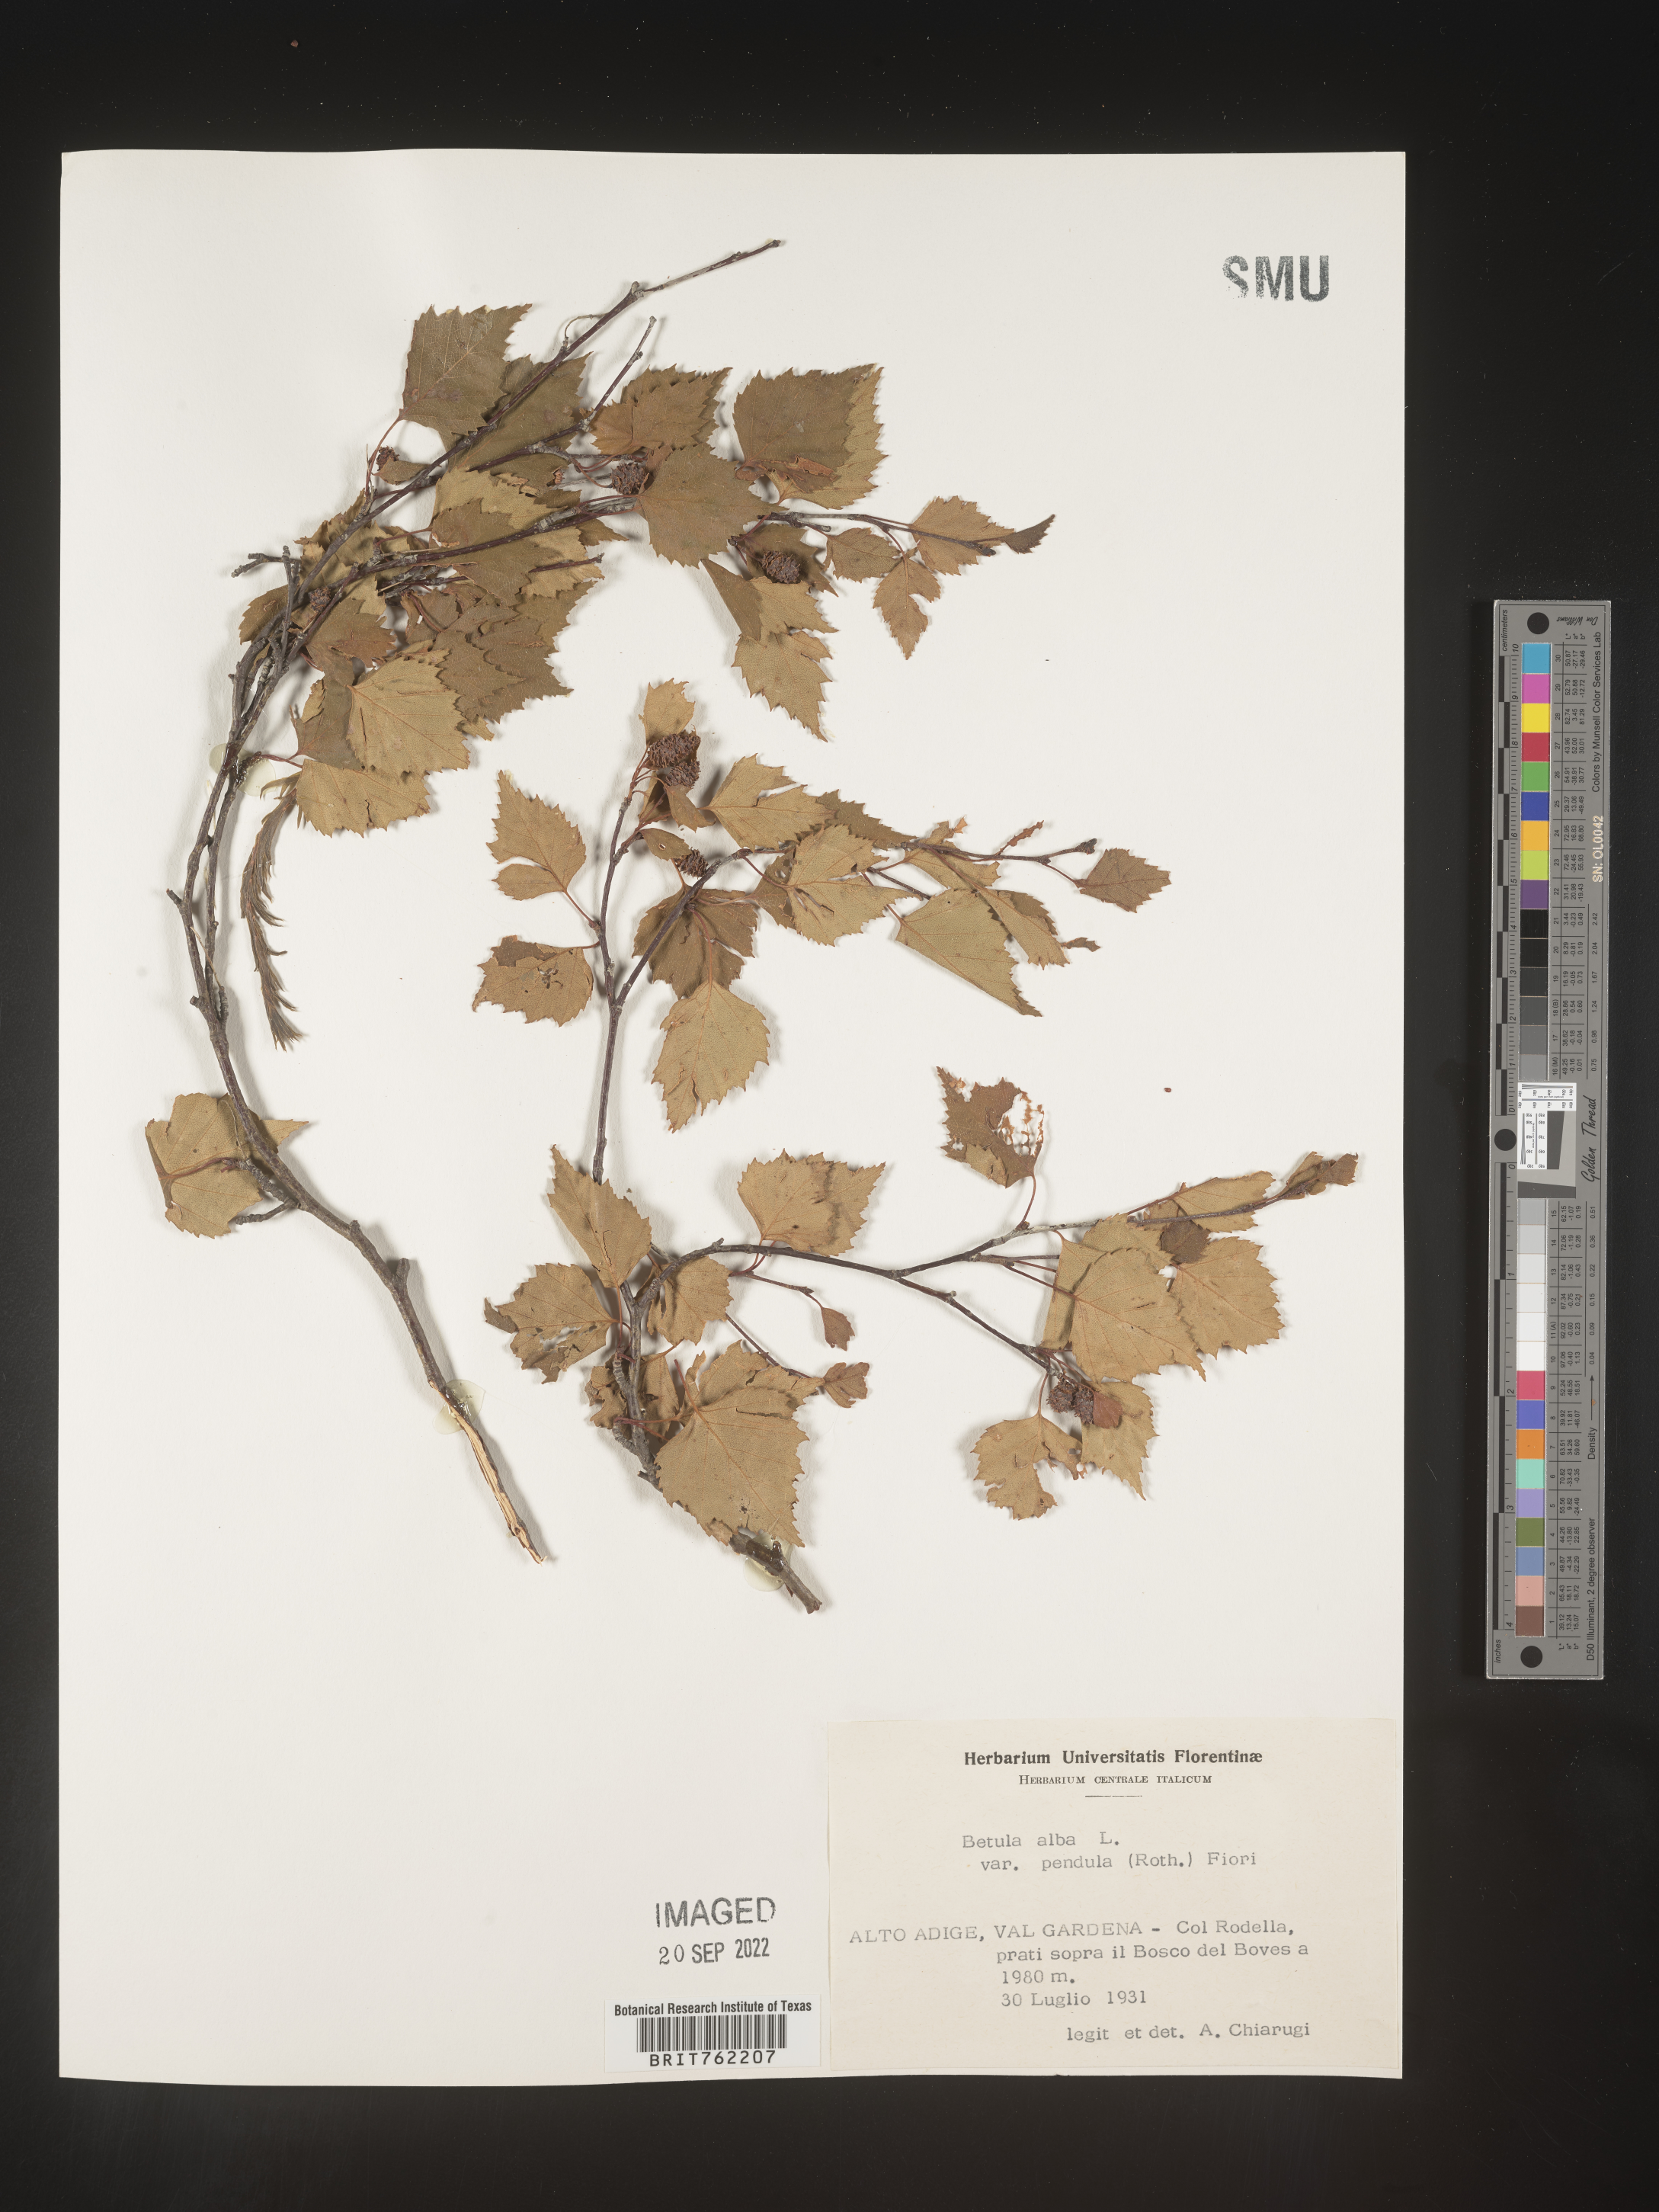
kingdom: Plantae
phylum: Tracheophyta
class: Magnoliopsida
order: Fagales
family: Betulaceae
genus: Betula
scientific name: Betula
